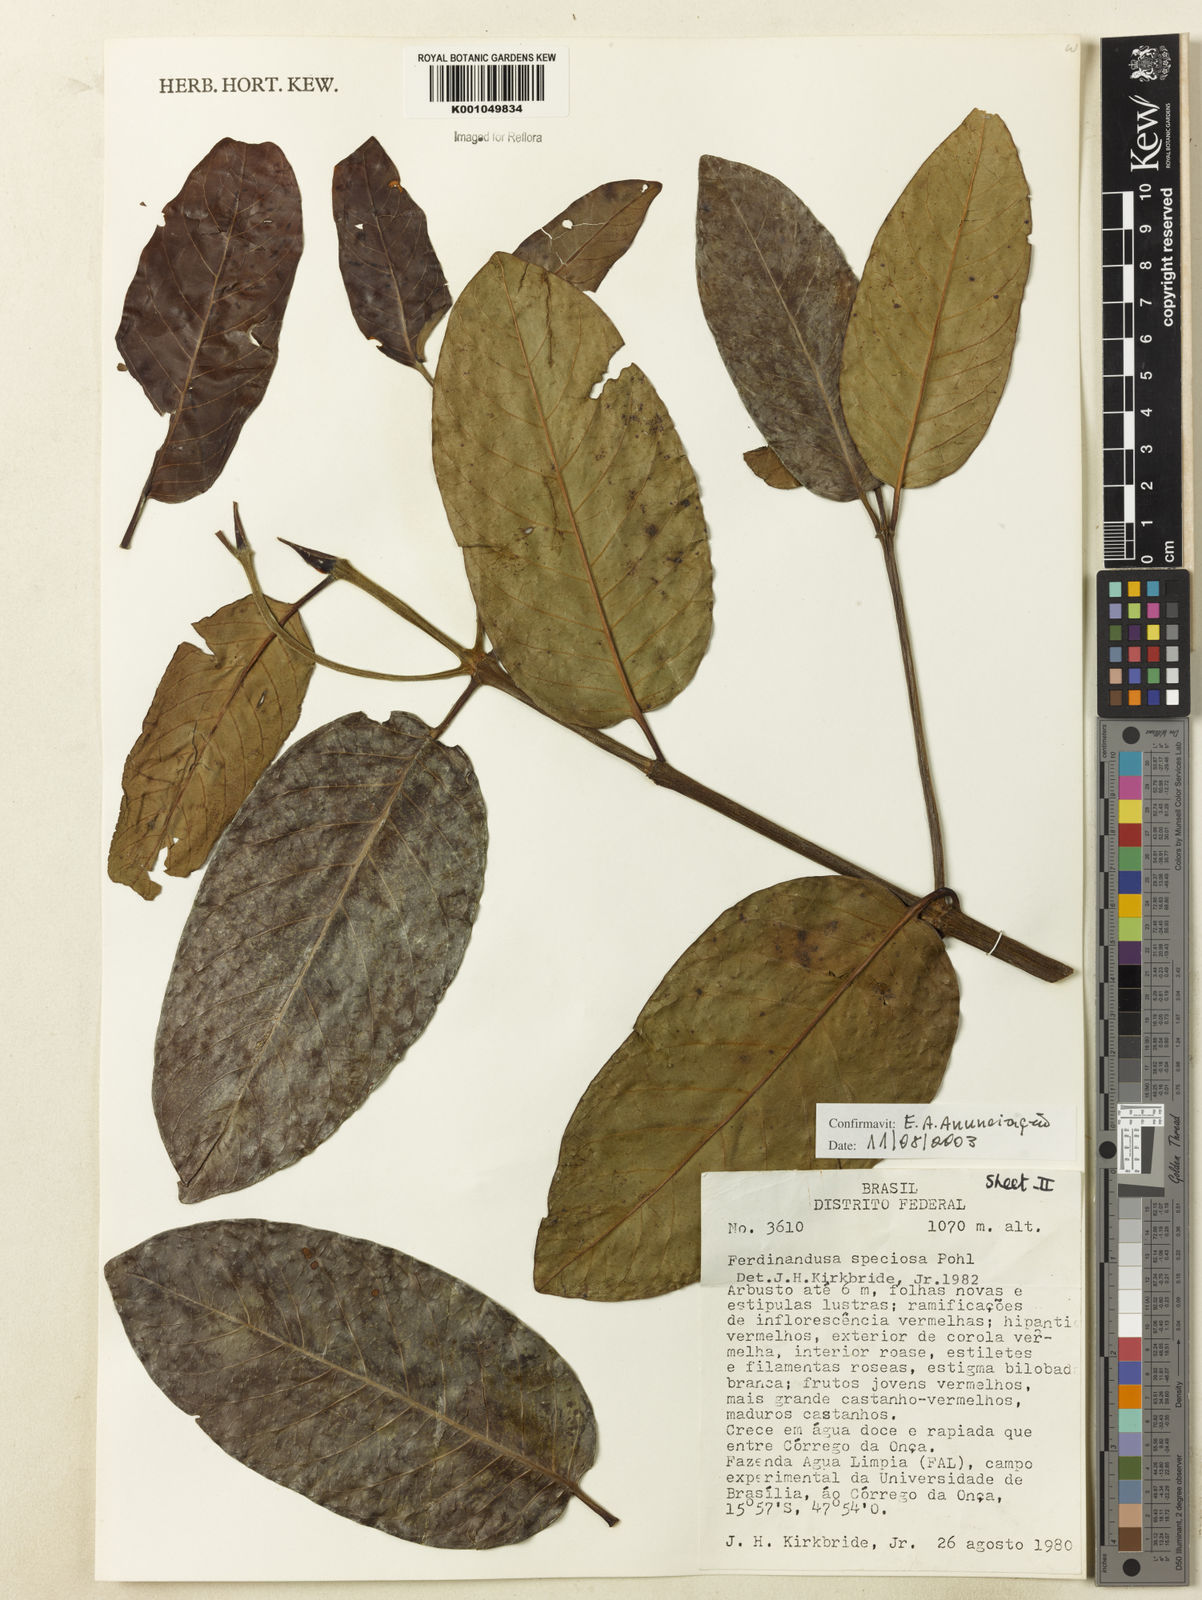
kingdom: Plantae
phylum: Tracheophyta
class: Magnoliopsida
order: Gentianales
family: Rubiaceae
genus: Ferdinandusa
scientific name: Ferdinandusa speciosa
